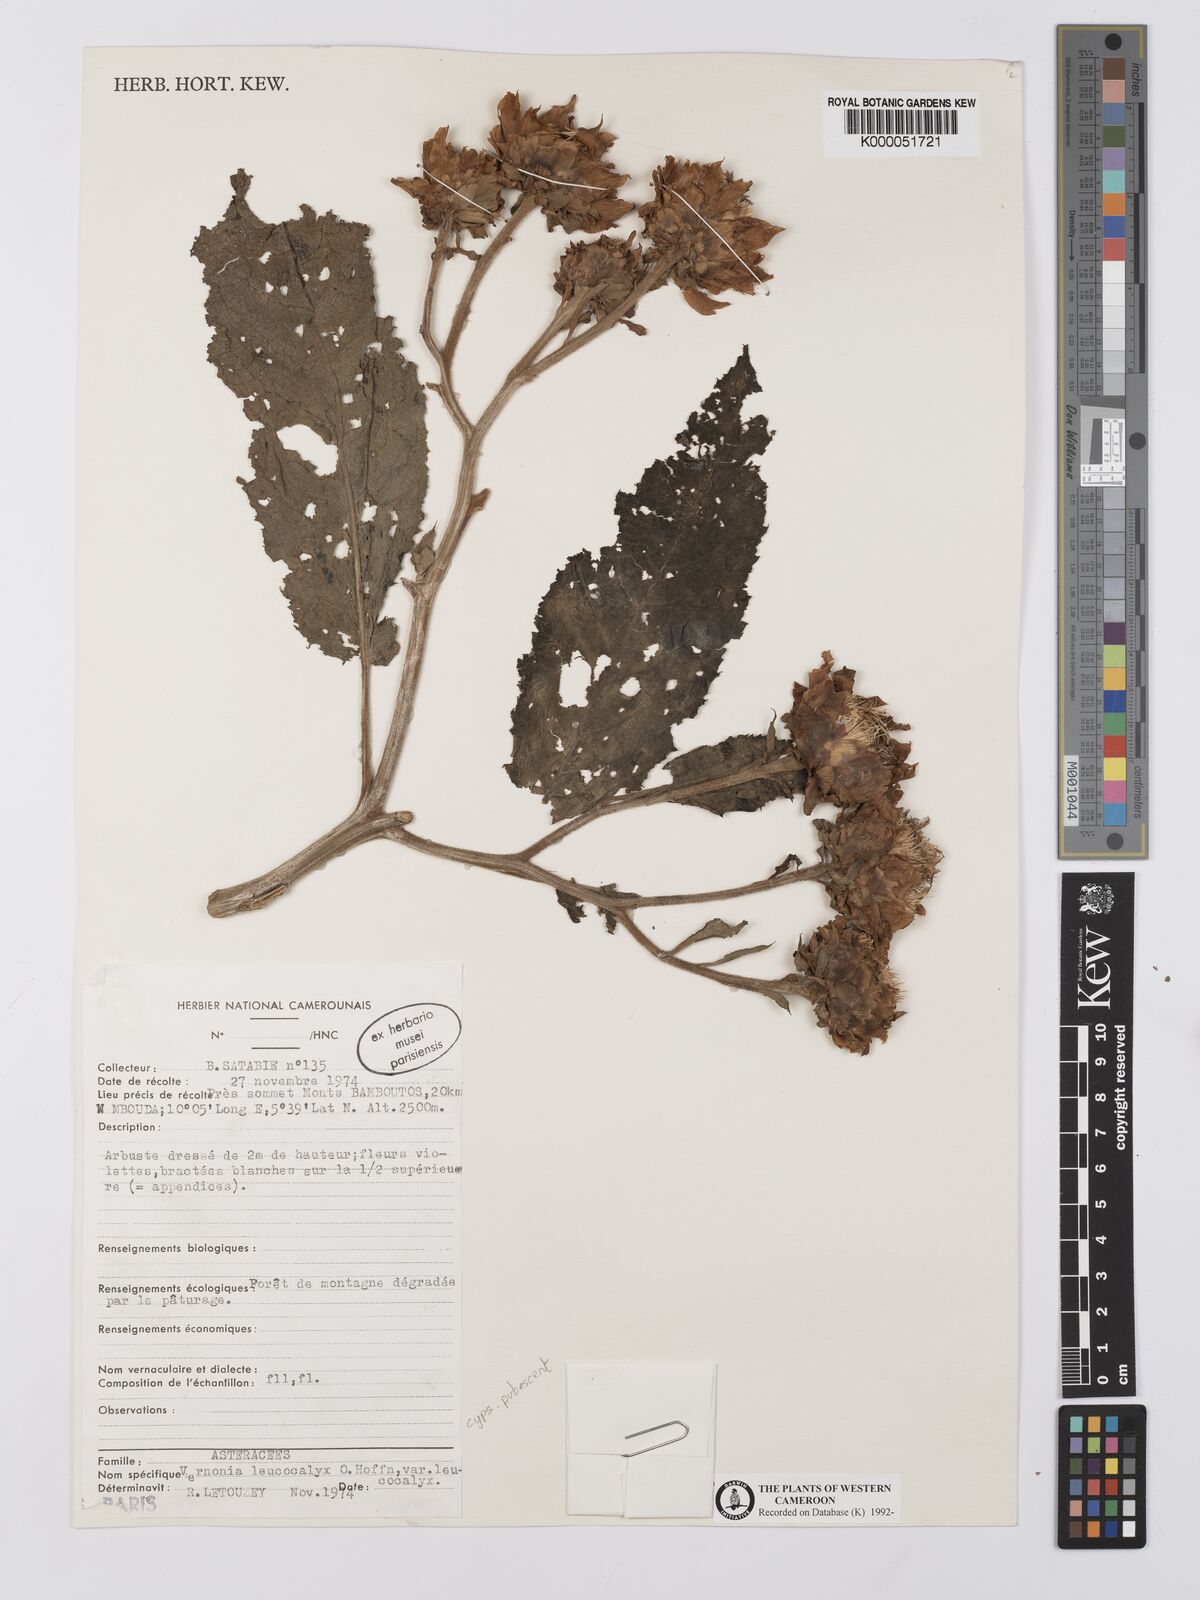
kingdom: Plantae
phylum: Tracheophyta
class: Magnoliopsida
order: Asterales
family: Asteraceae
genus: Baccharoides
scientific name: Baccharoides tenoreana
